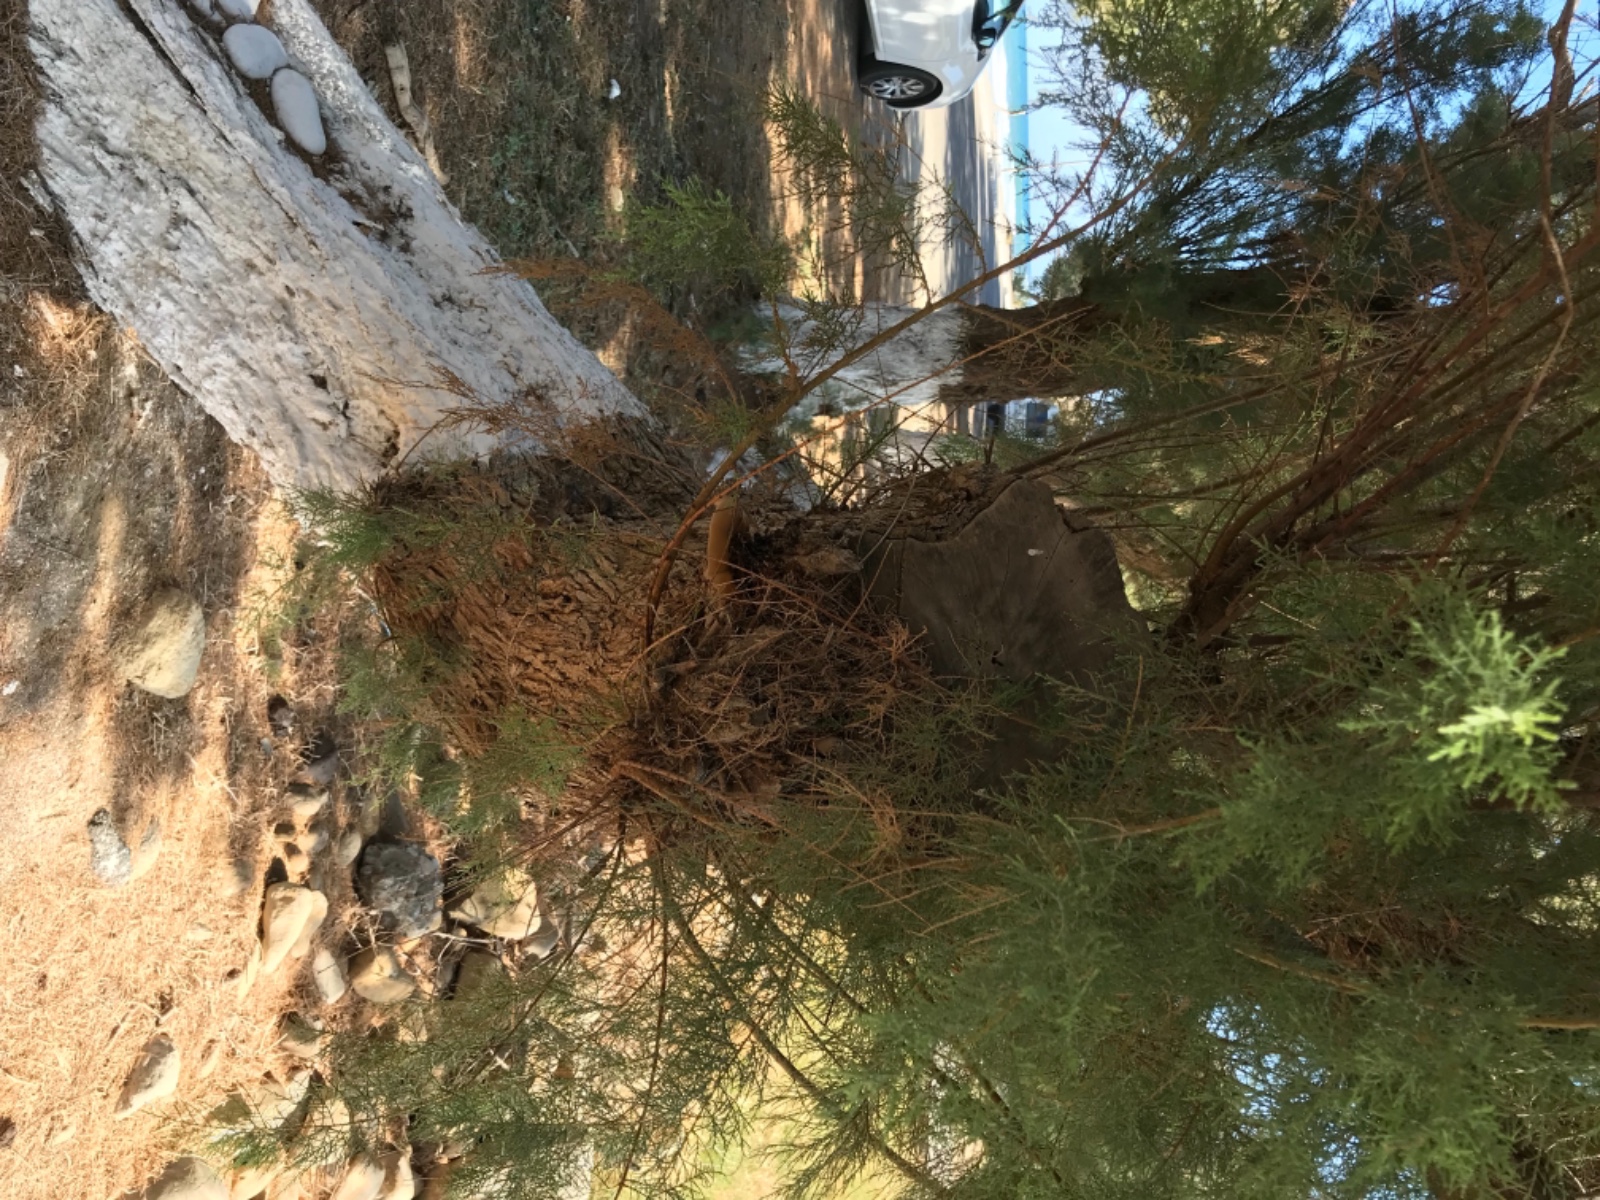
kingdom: Fungi
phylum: Basidiomycota
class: Agaricomycetes
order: Hymenochaetales
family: Hymenochaetaceae
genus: Inocutis
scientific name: Inocutis tamaricis
